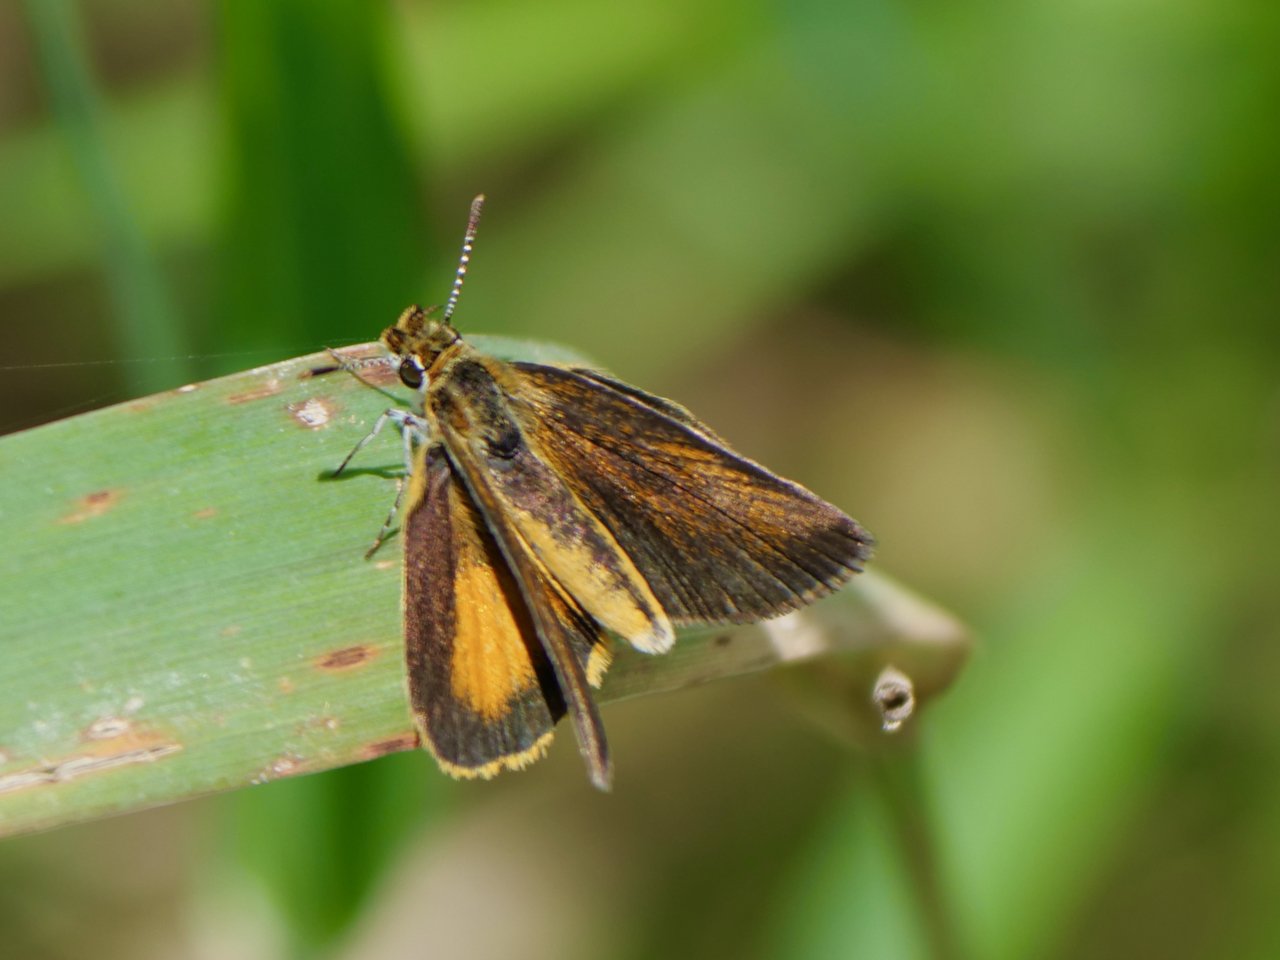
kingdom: Animalia
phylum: Arthropoda
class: Insecta
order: Lepidoptera
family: Hesperiidae
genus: Ancyloxypha
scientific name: Ancyloxypha numitor
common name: Least Skipper
